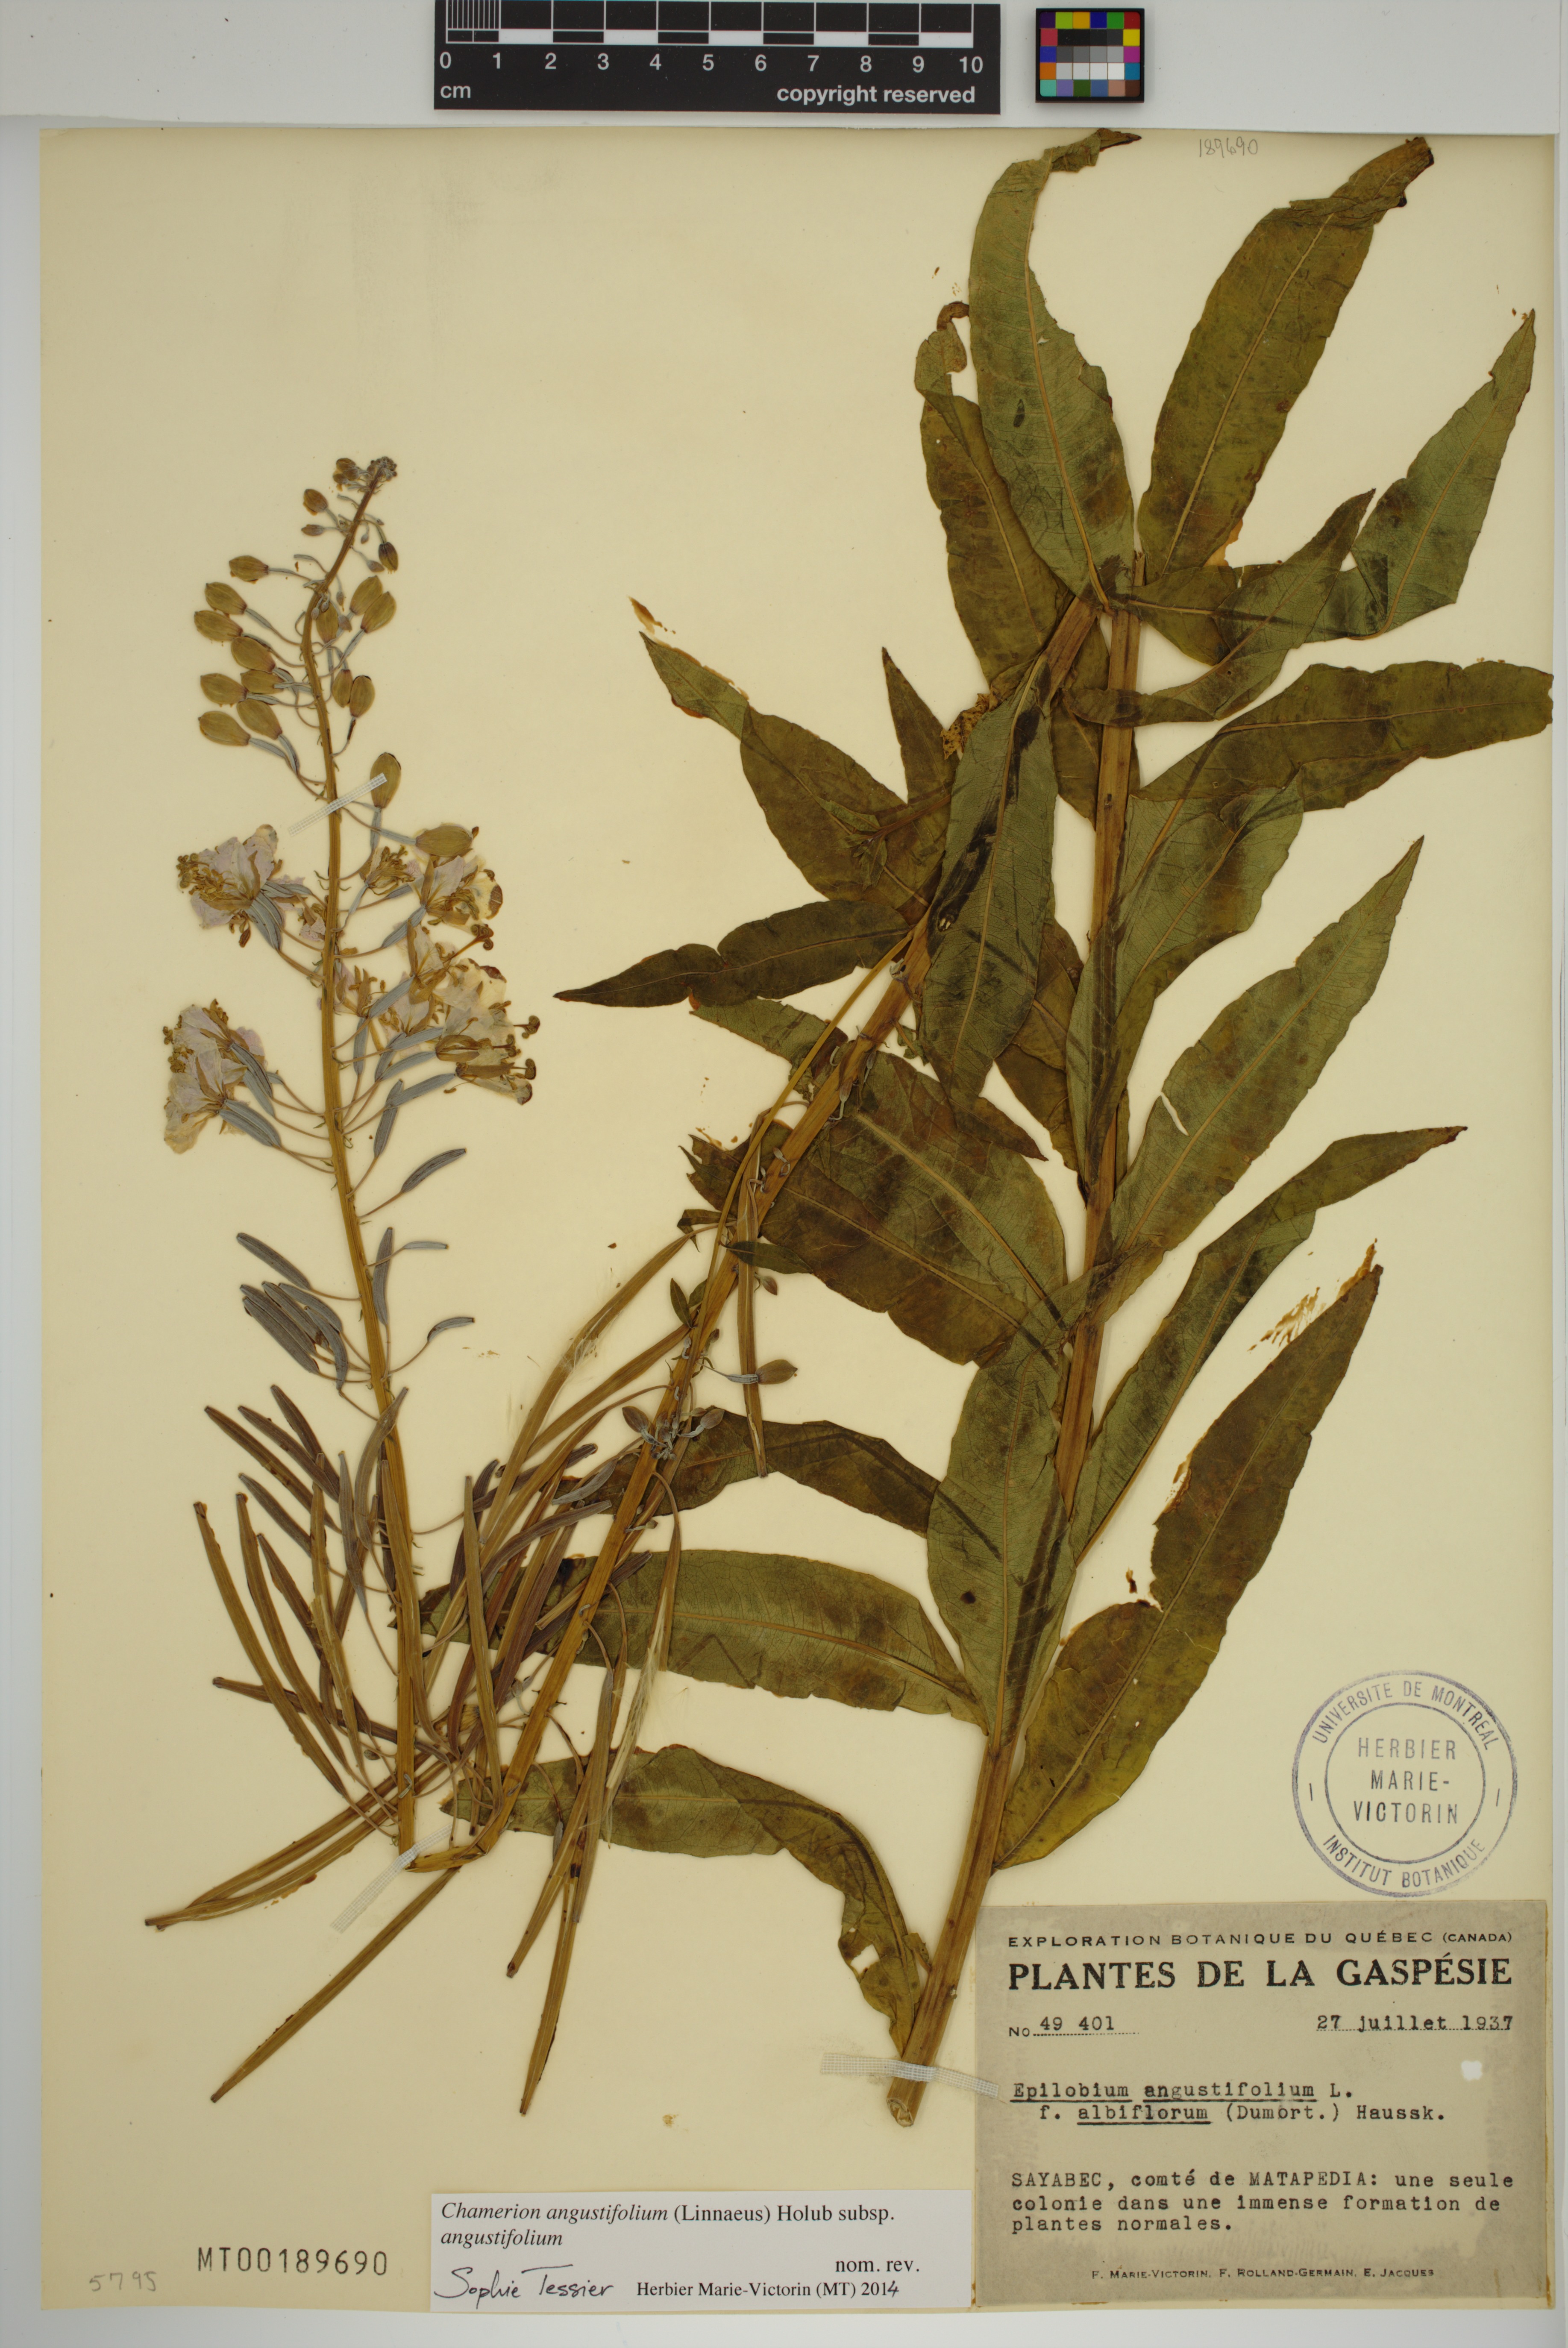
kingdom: Plantae
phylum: Tracheophyta
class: Magnoliopsida
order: Myrtales
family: Onagraceae
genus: Chamaenerion
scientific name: Chamaenerion angustifolium
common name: Fireweed
